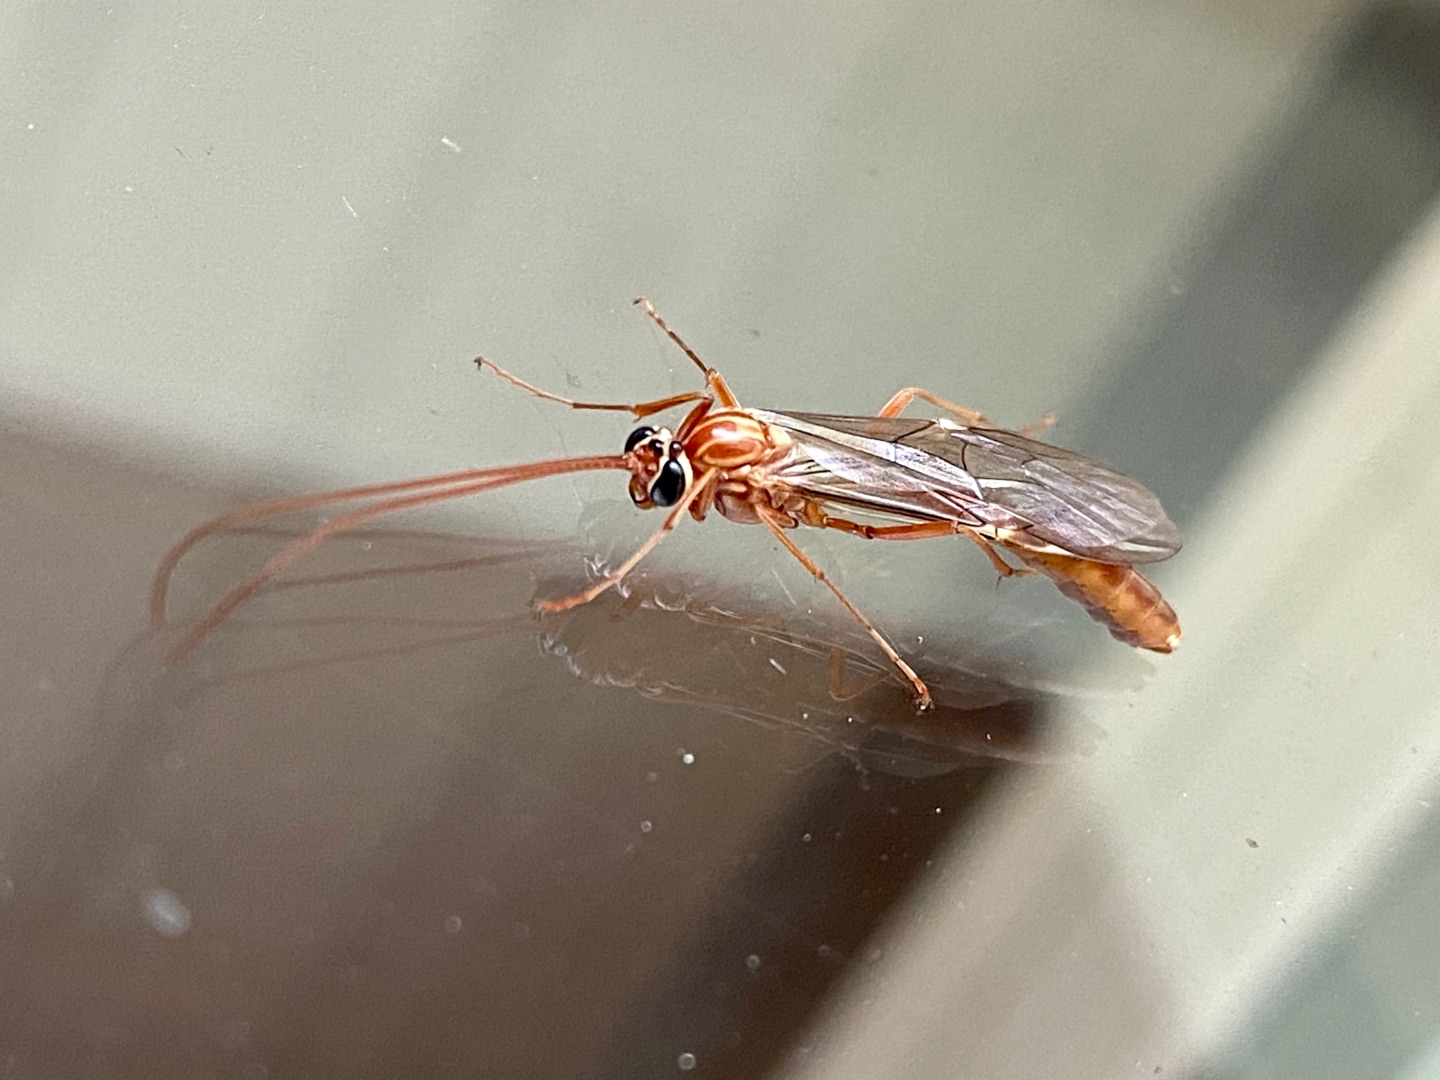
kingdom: Animalia
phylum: Arthropoda
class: Insecta
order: Hymenoptera
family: Ichneumonidae
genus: Ophion
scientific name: Ophion obscuratus
